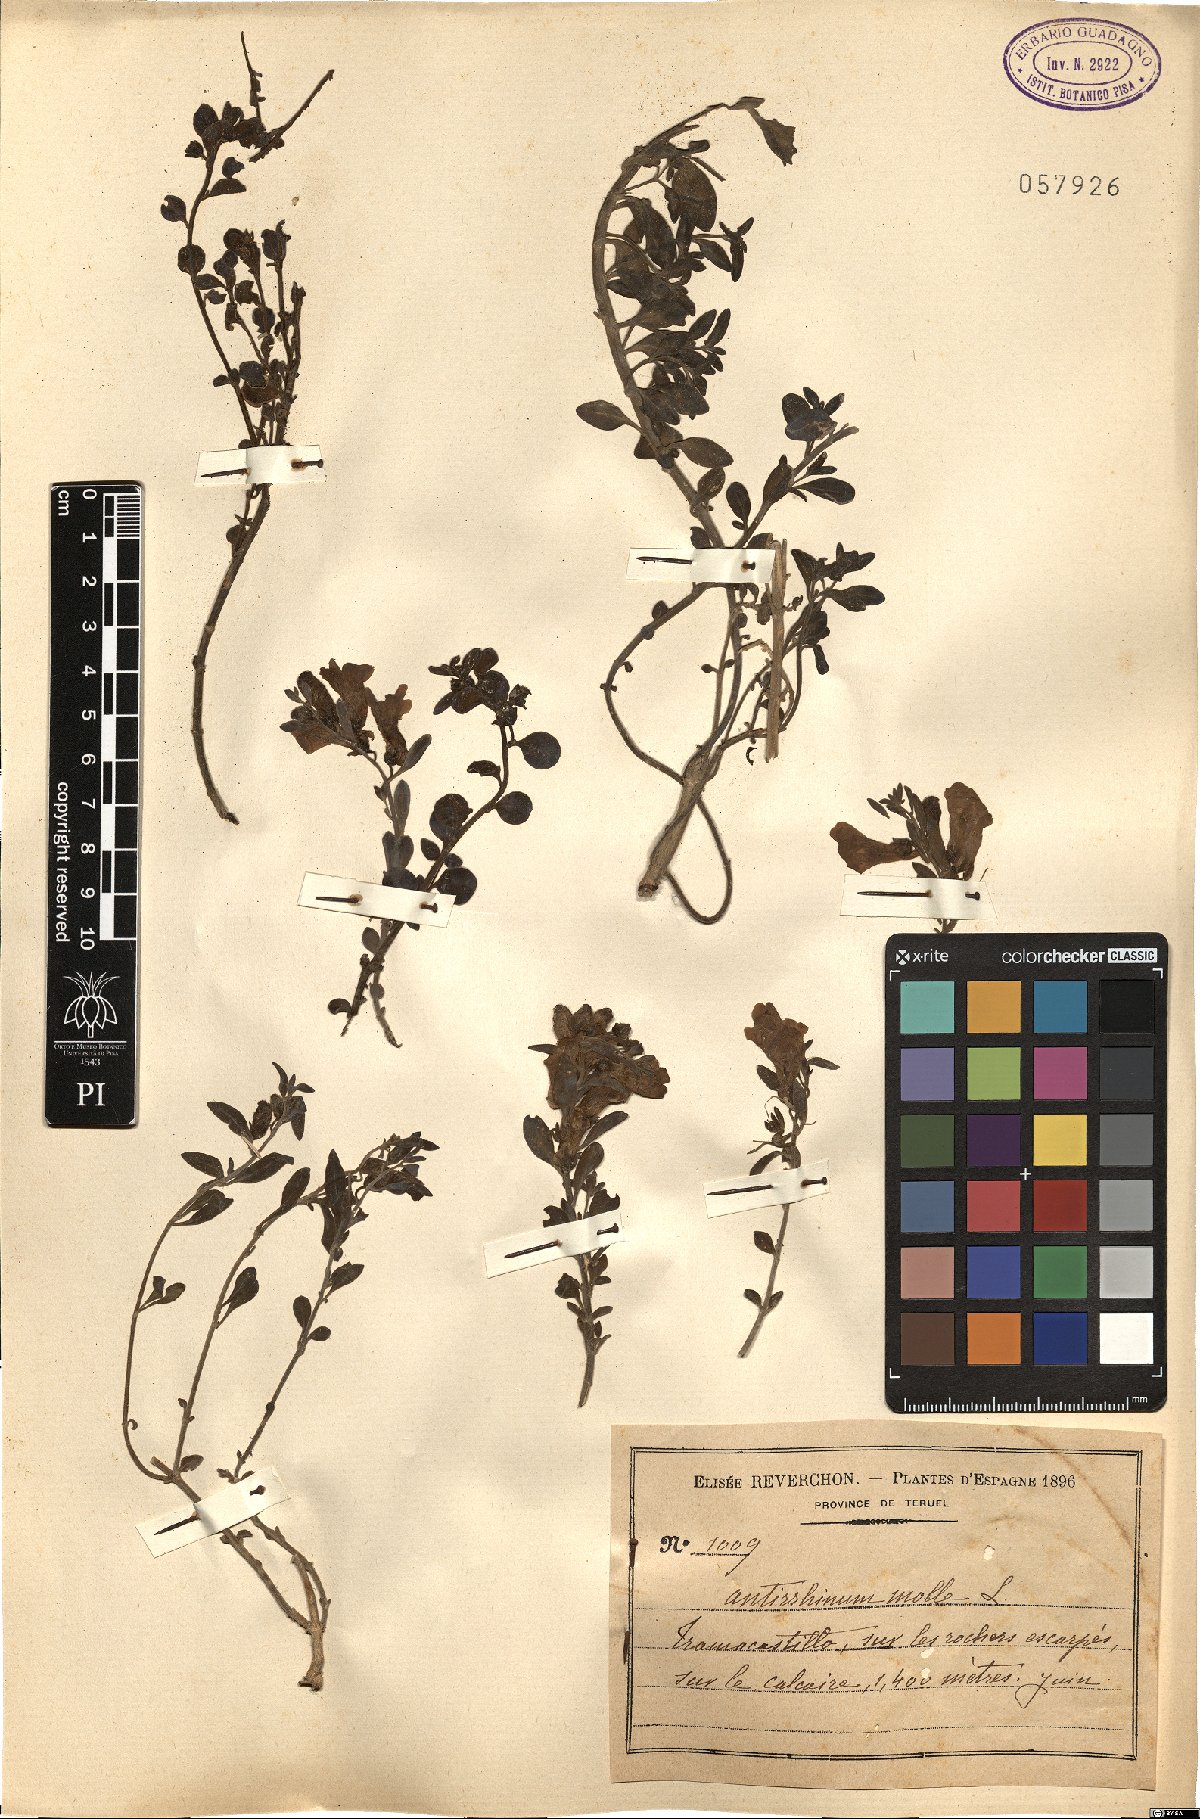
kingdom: Plantae
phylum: Tracheophyta
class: Magnoliopsida
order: Lamiales
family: Plantaginaceae
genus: Antirrhinum
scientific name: Antirrhinum molle
